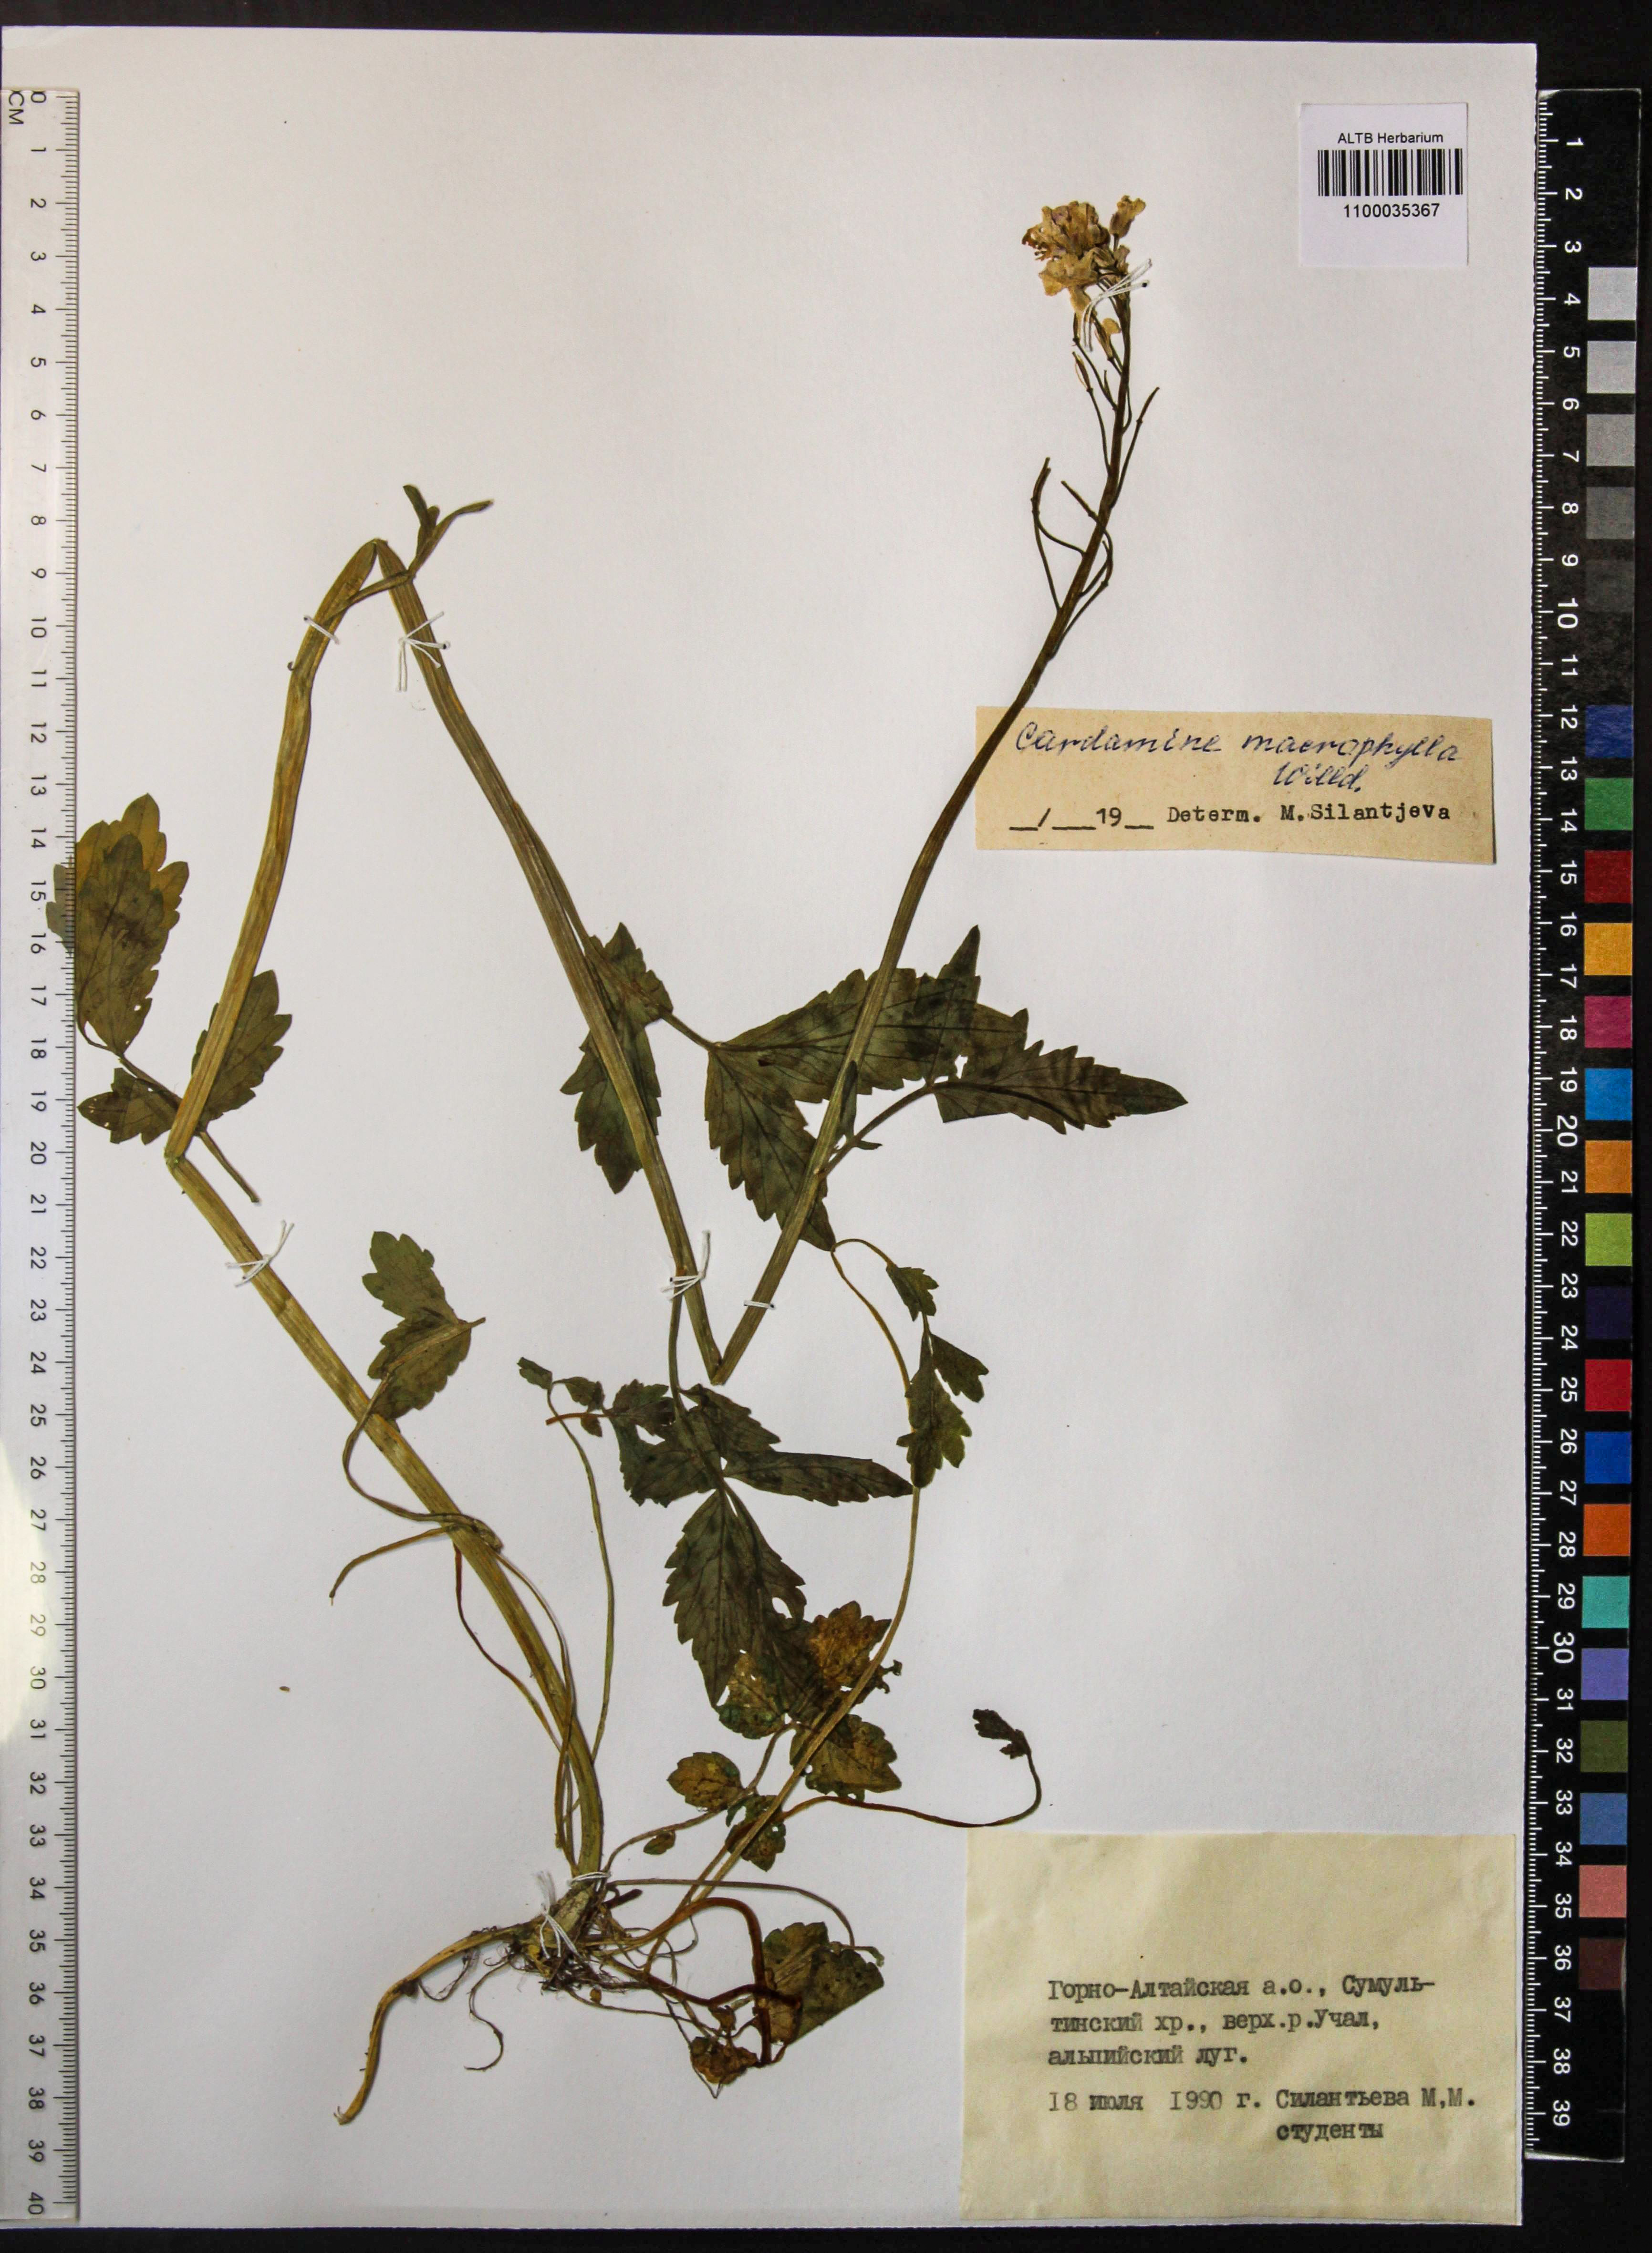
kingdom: Plantae
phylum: Tracheophyta
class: Magnoliopsida
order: Brassicales
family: Brassicaceae
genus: Cardamine
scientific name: Cardamine macrophylla
